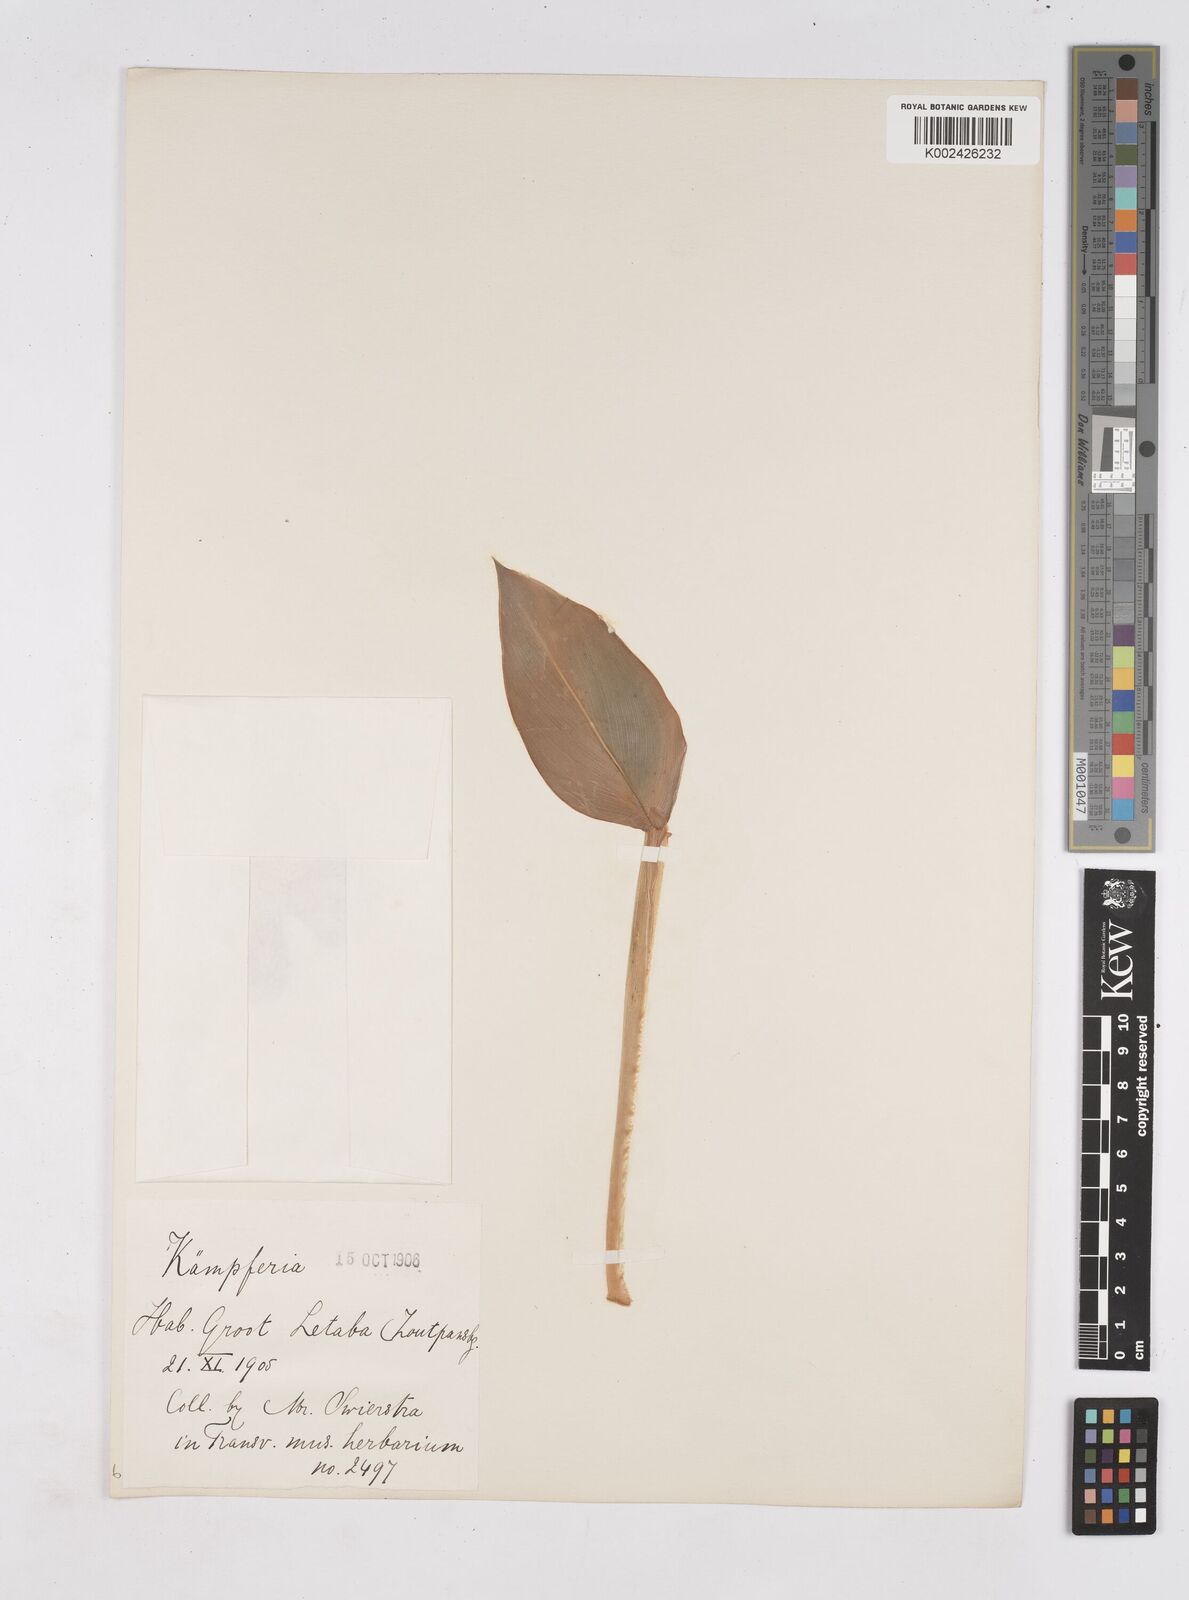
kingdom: Plantae
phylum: Tracheophyta
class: Liliopsida
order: Zingiberales
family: Zingiberaceae
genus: Siphonochilus
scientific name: Siphonochilus
